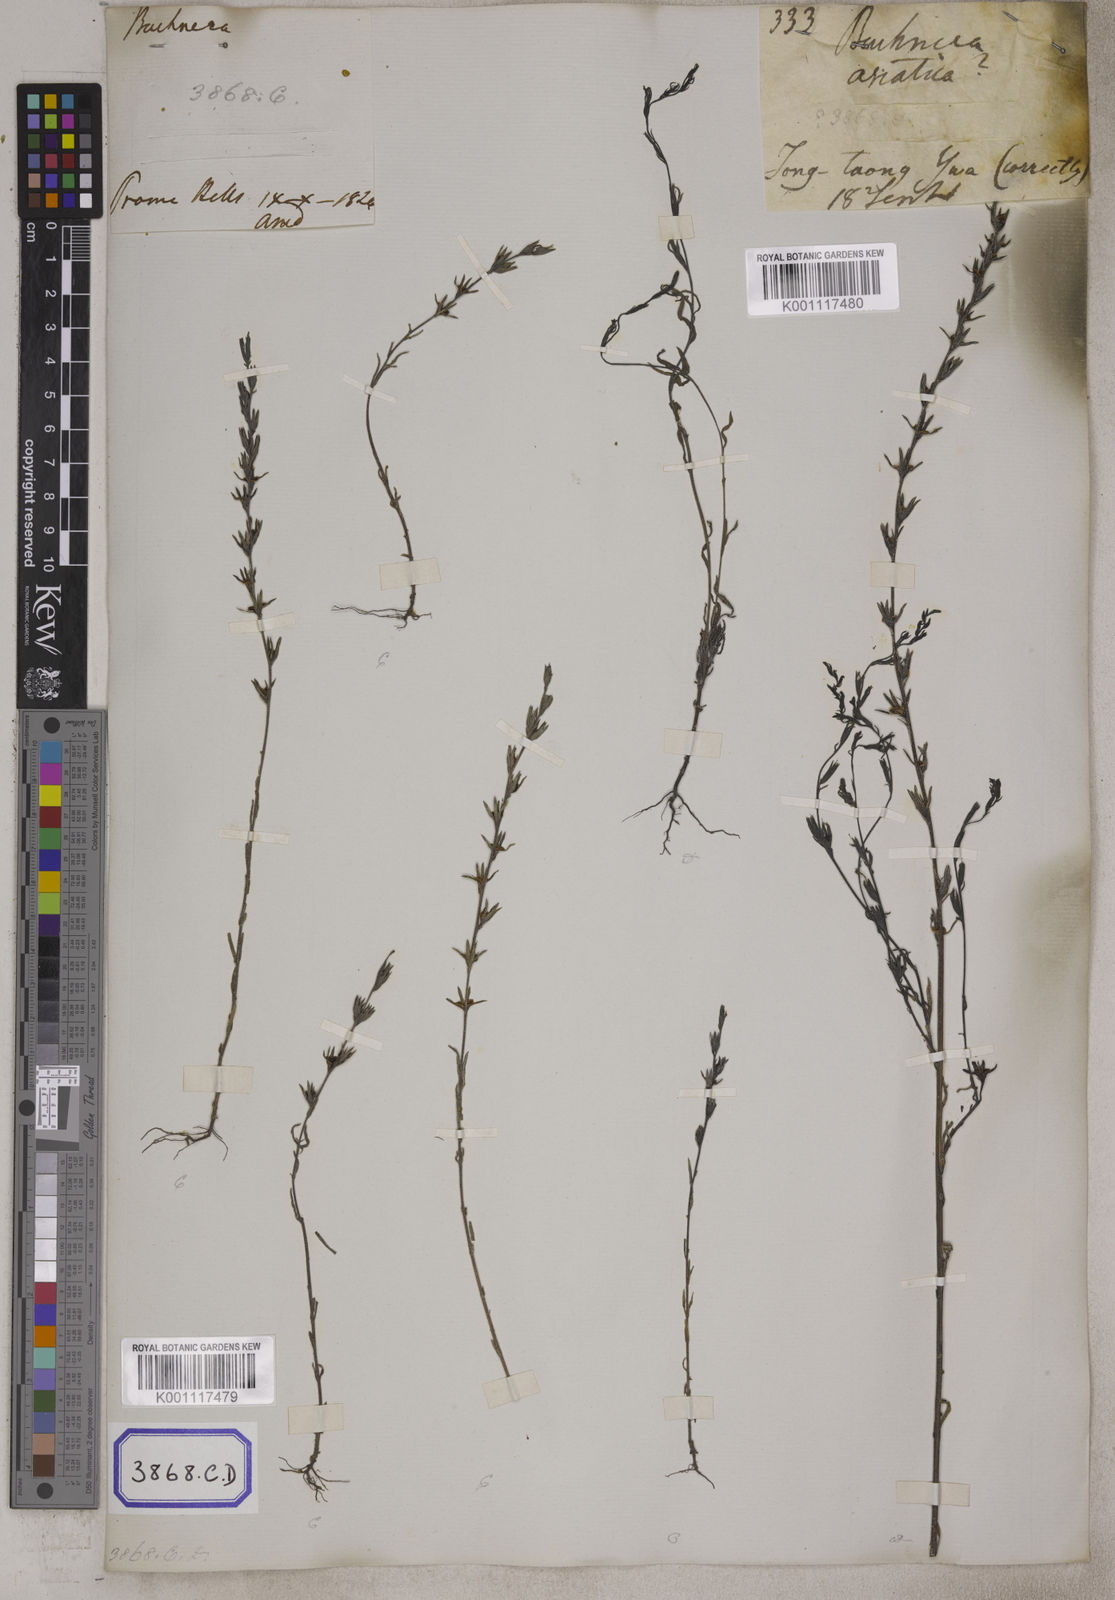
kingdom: Plantae
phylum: Tracheophyta
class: Magnoliopsida
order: Lamiales
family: Orobanchaceae
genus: Striga
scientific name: Striga angustifolia
